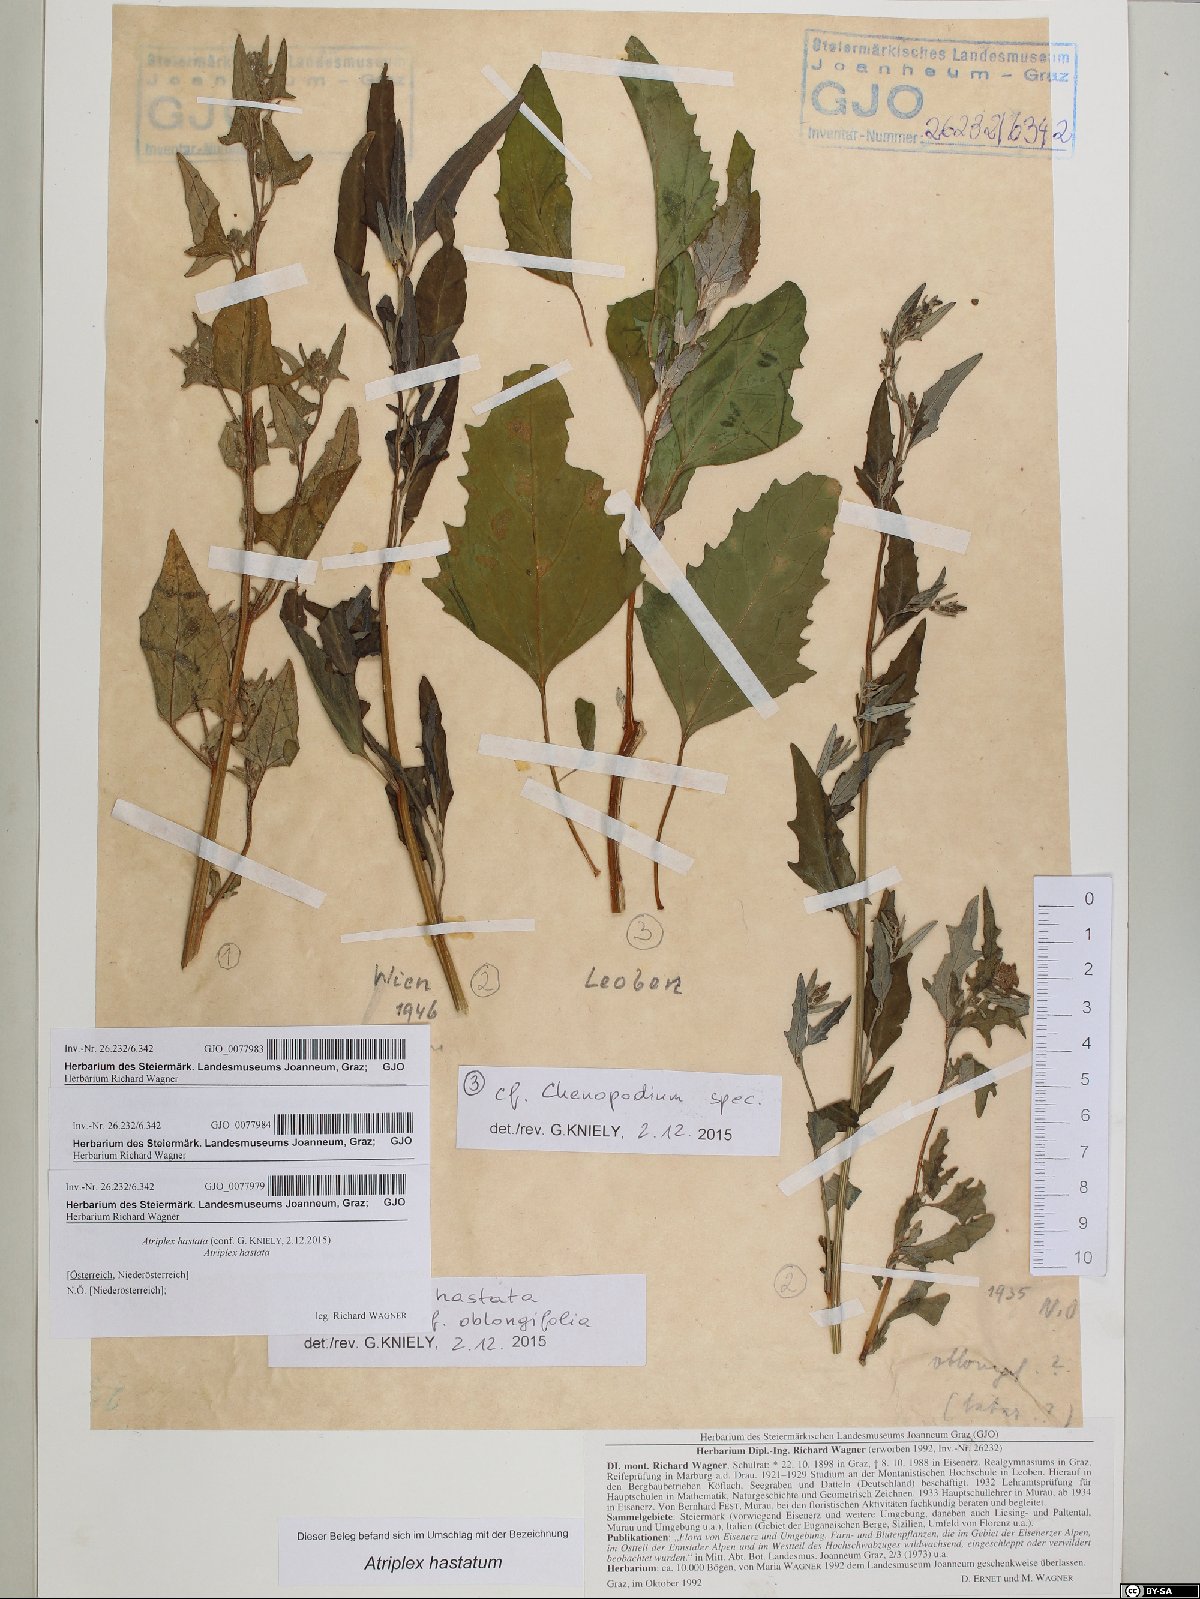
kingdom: Plantae
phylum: Tracheophyta
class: Magnoliopsida
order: Caryophyllales
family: Amaranthaceae
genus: Atriplex
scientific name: Atriplex oblongifolia
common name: Oblongleaf orache
